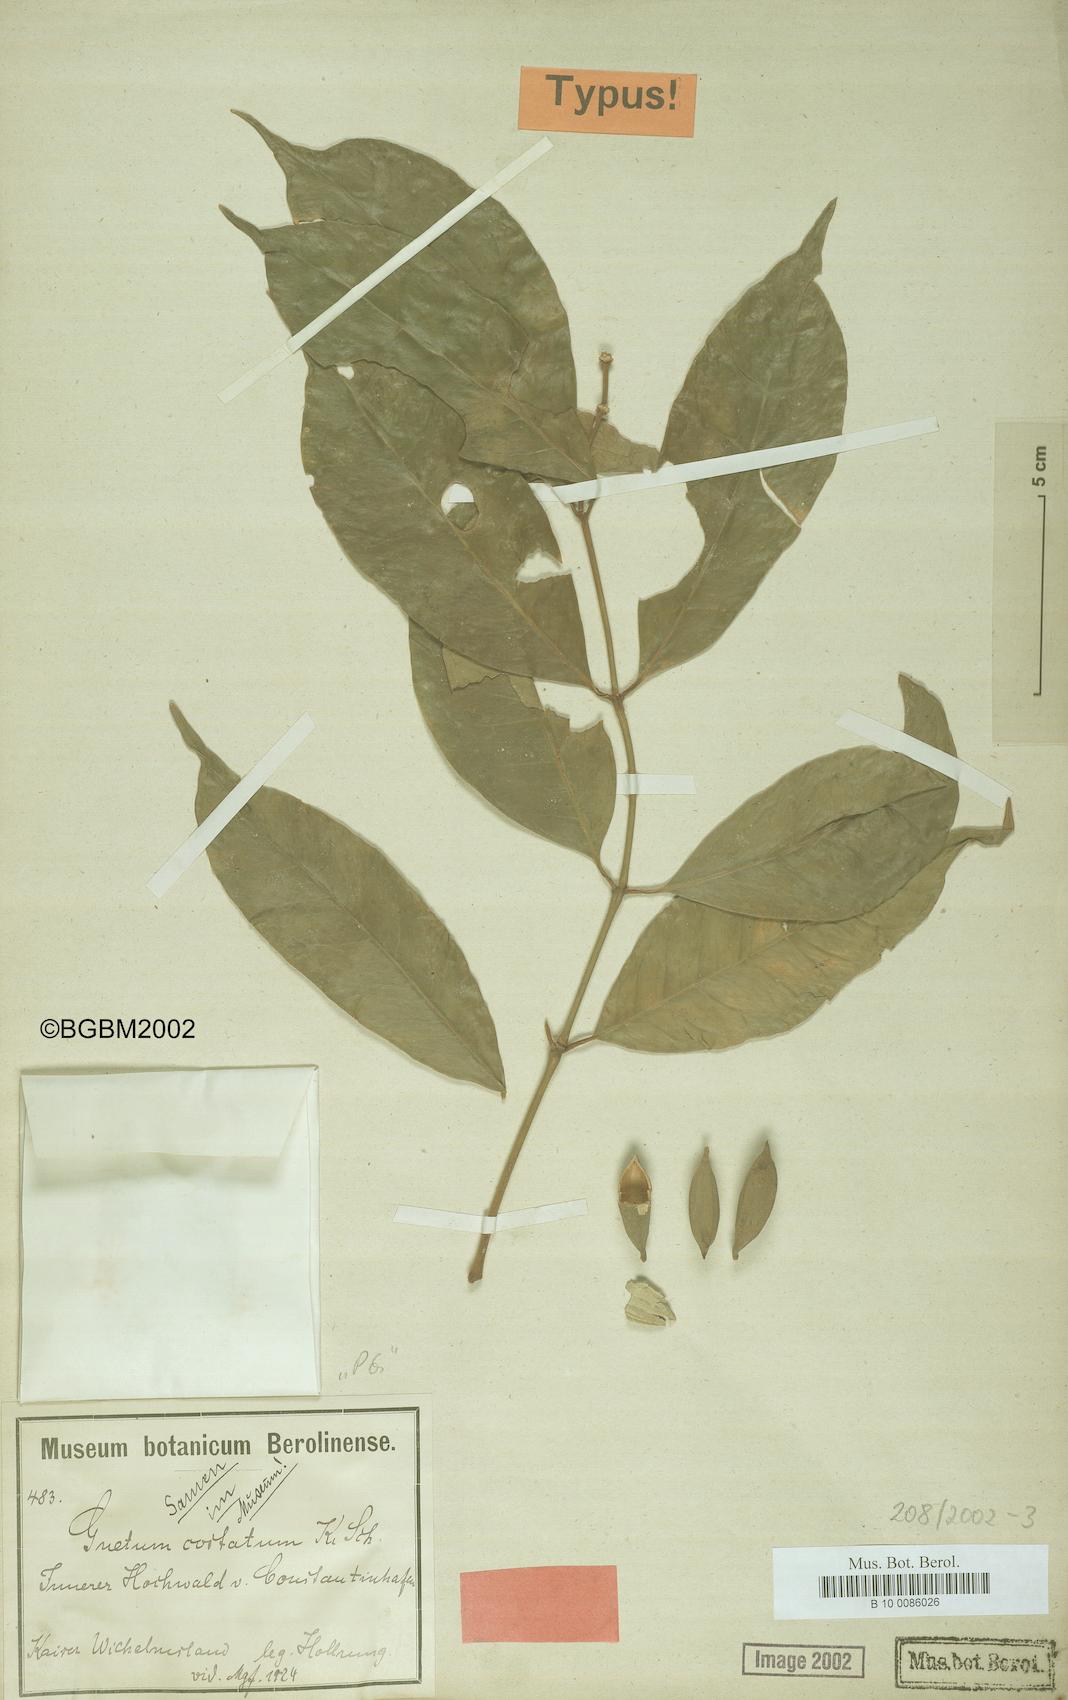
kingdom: Plantae
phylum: Tracheophyta
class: Gnetopsida
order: Gnetales
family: Gnetaceae
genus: Gnetum
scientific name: Gnetum costatum
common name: Tulip
